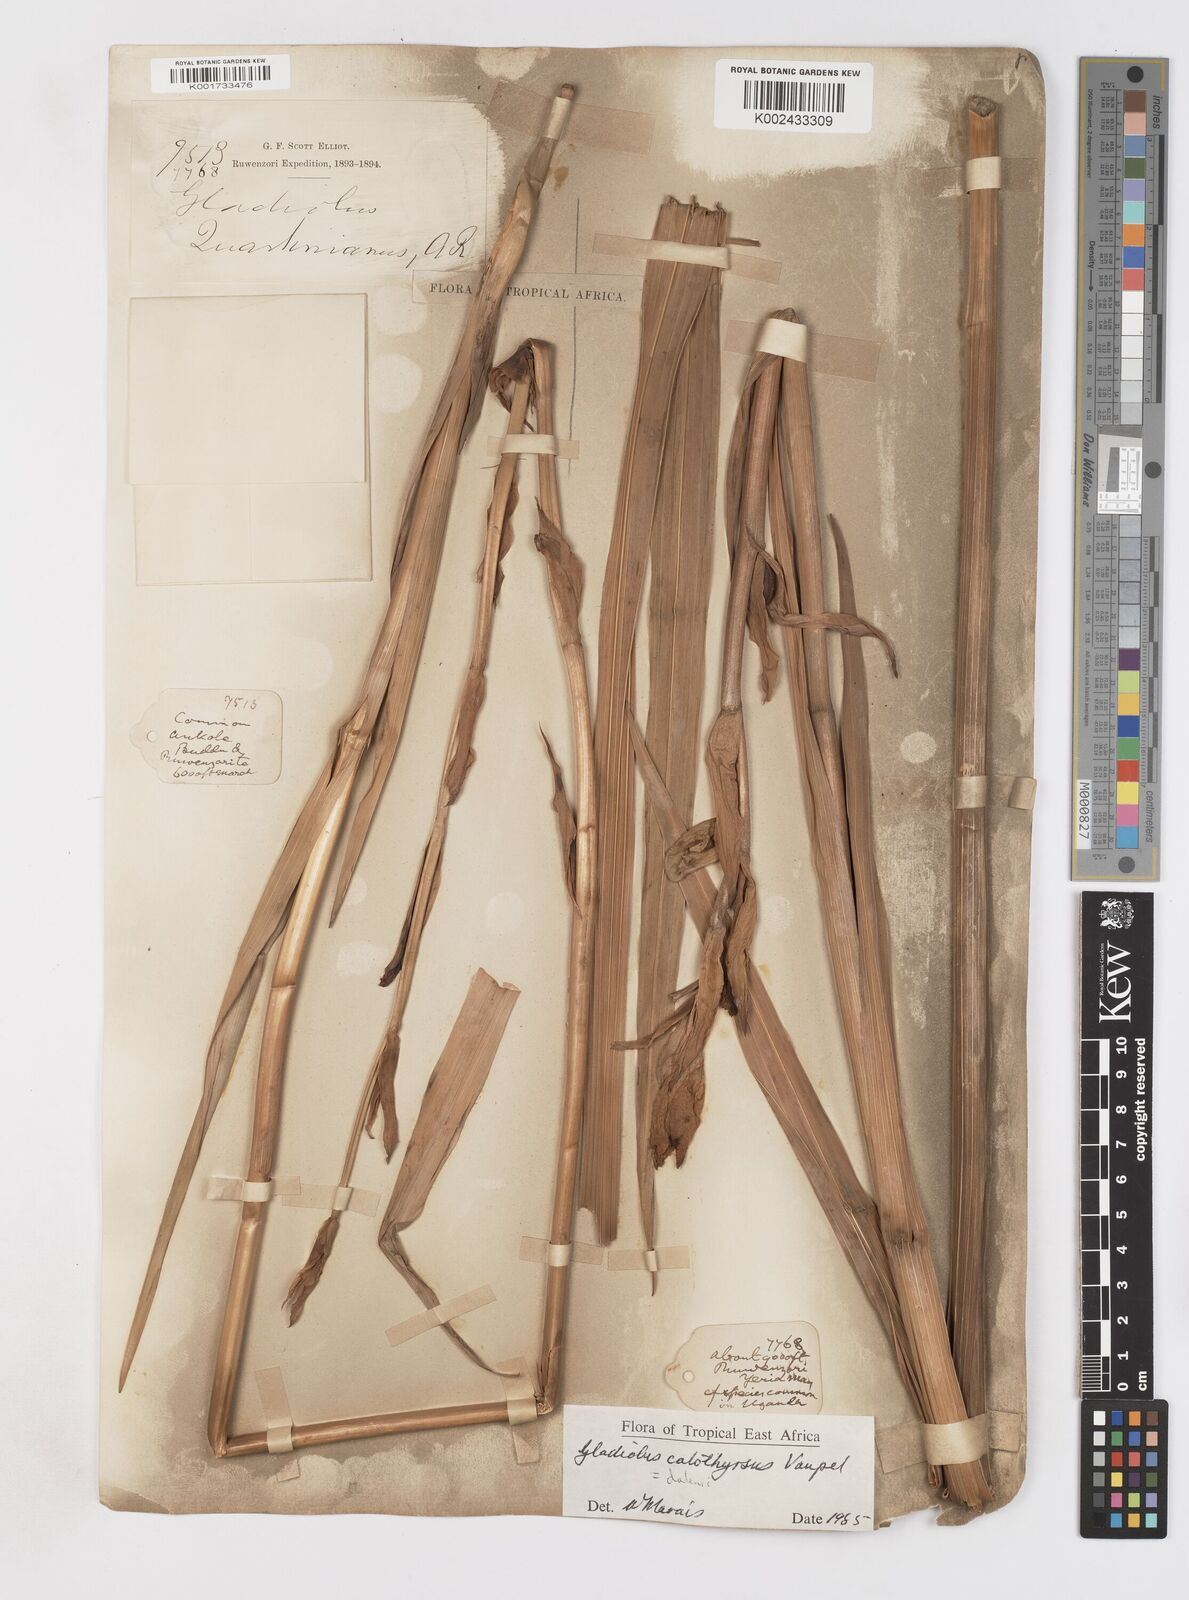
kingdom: Plantae
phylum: Tracheophyta
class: Liliopsida
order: Asparagales
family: Iridaceae
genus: Gladiolus
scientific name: Gladiolus dalenii
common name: Cornflag
